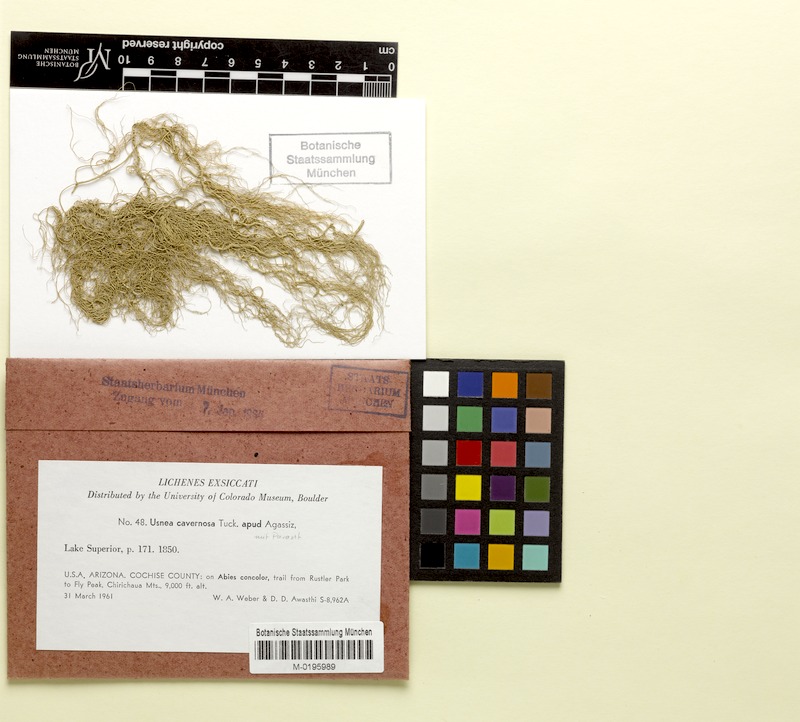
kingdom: Fungi
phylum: Ascomycota
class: Lecanoromycetes
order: Lecanorales
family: Parmeliaceae
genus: Usnea
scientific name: Usnea cavernosa
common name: Pitted beard lichen
